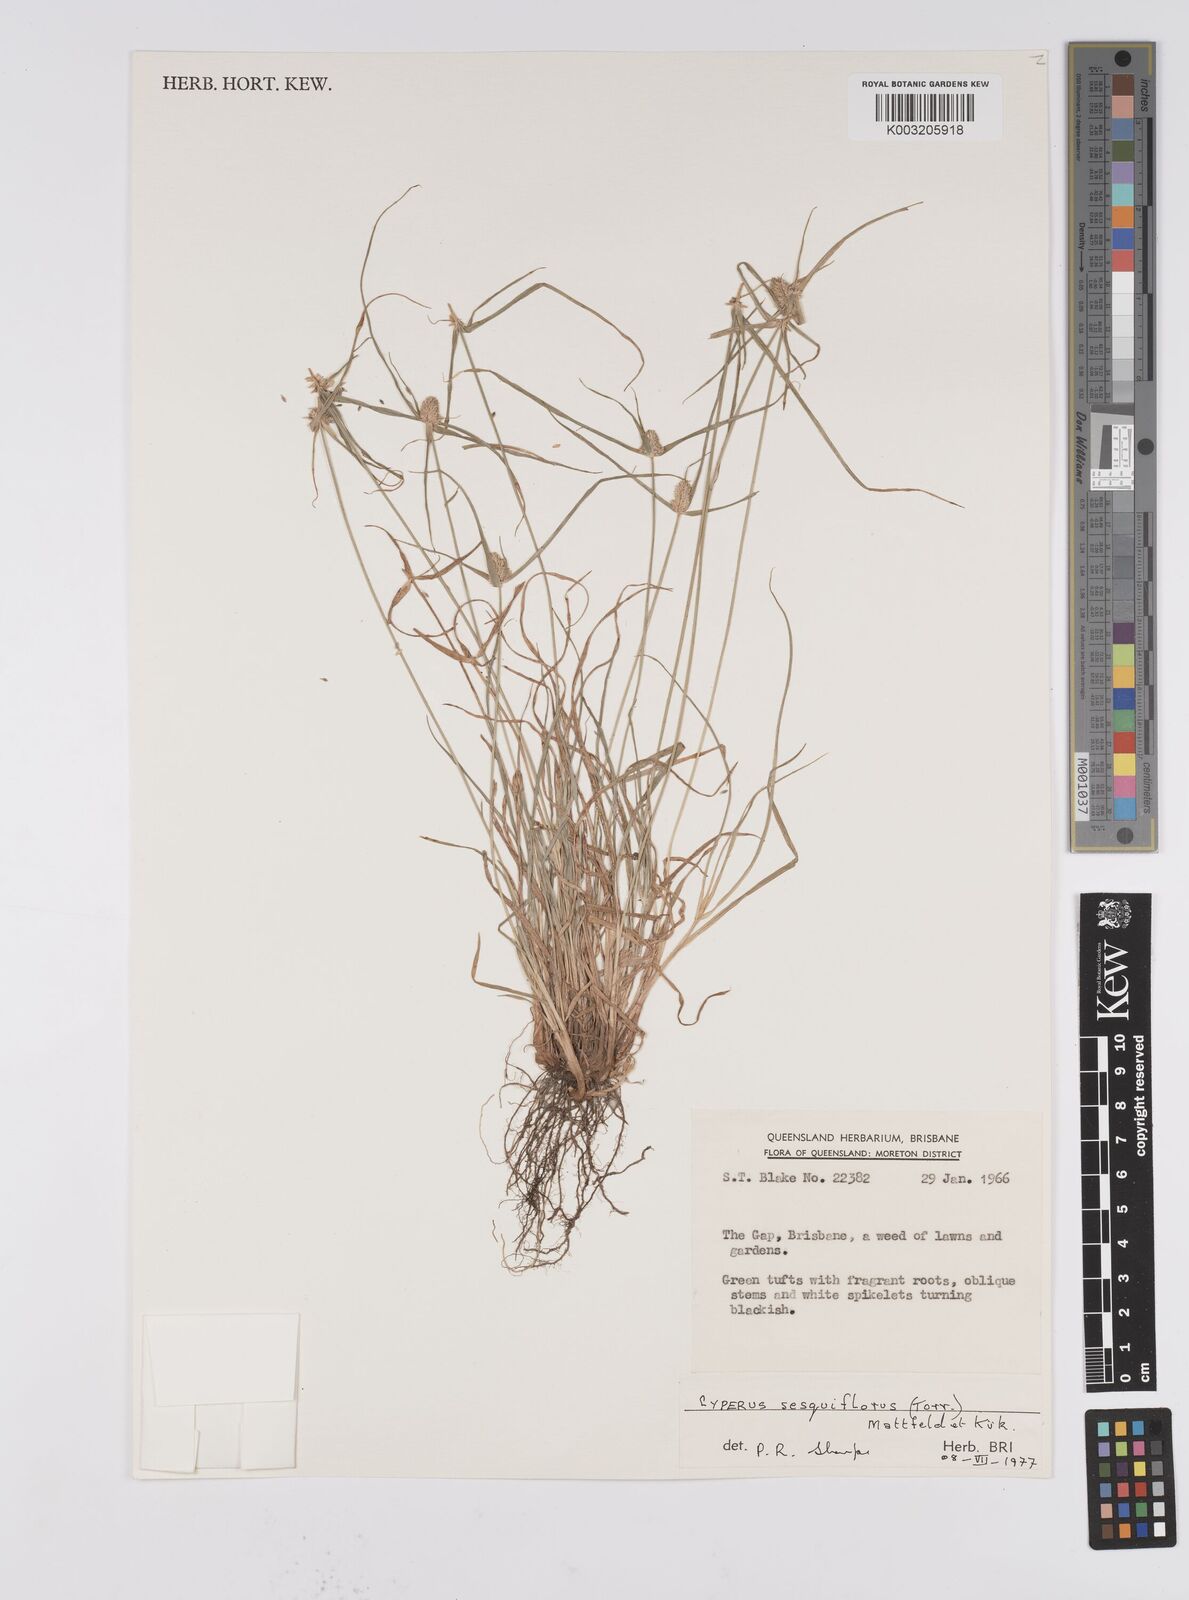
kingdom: Plantae
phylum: Tracheophyta
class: Liliopsida
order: Poales
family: Cyperaceae
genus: Cyperus
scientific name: Cyperus
